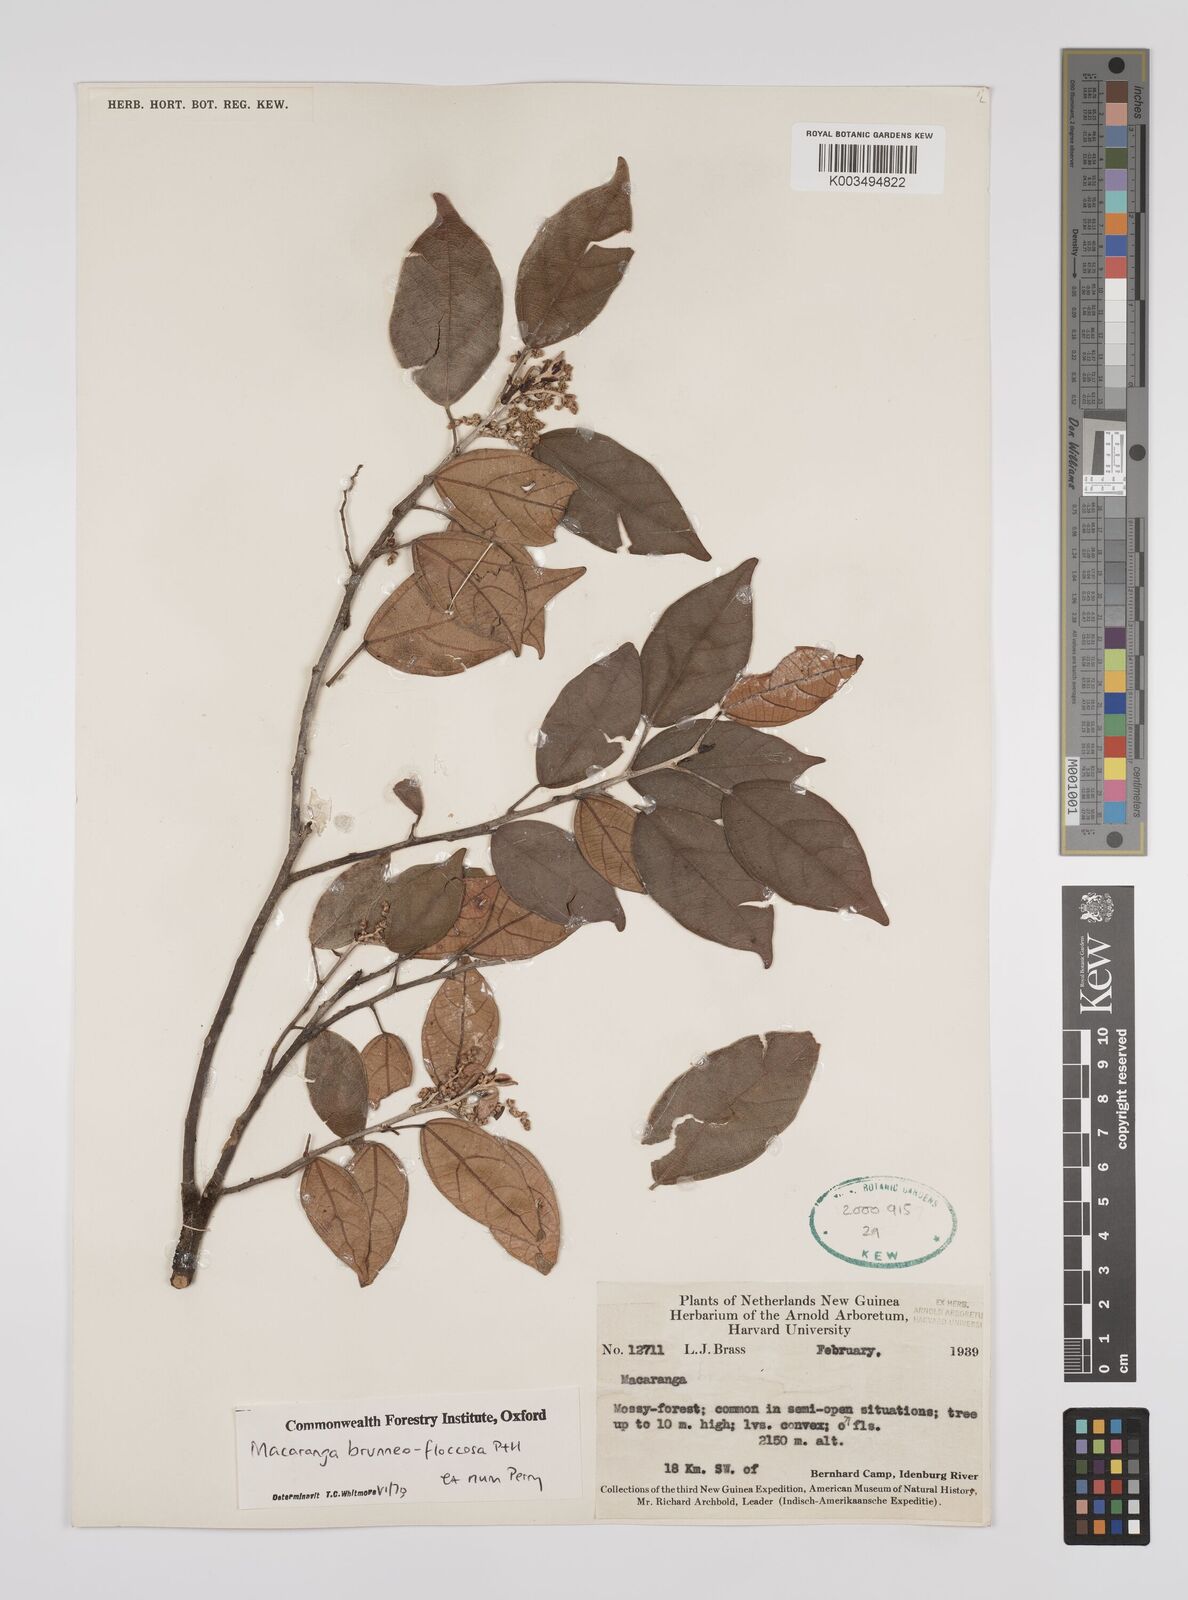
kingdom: Plantae
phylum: Tracheophyta
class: Magnoliopsida
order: Malpighiales
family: Euphorbiaceae
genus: Macaranga
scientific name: Macaranga brunneofloccosa
